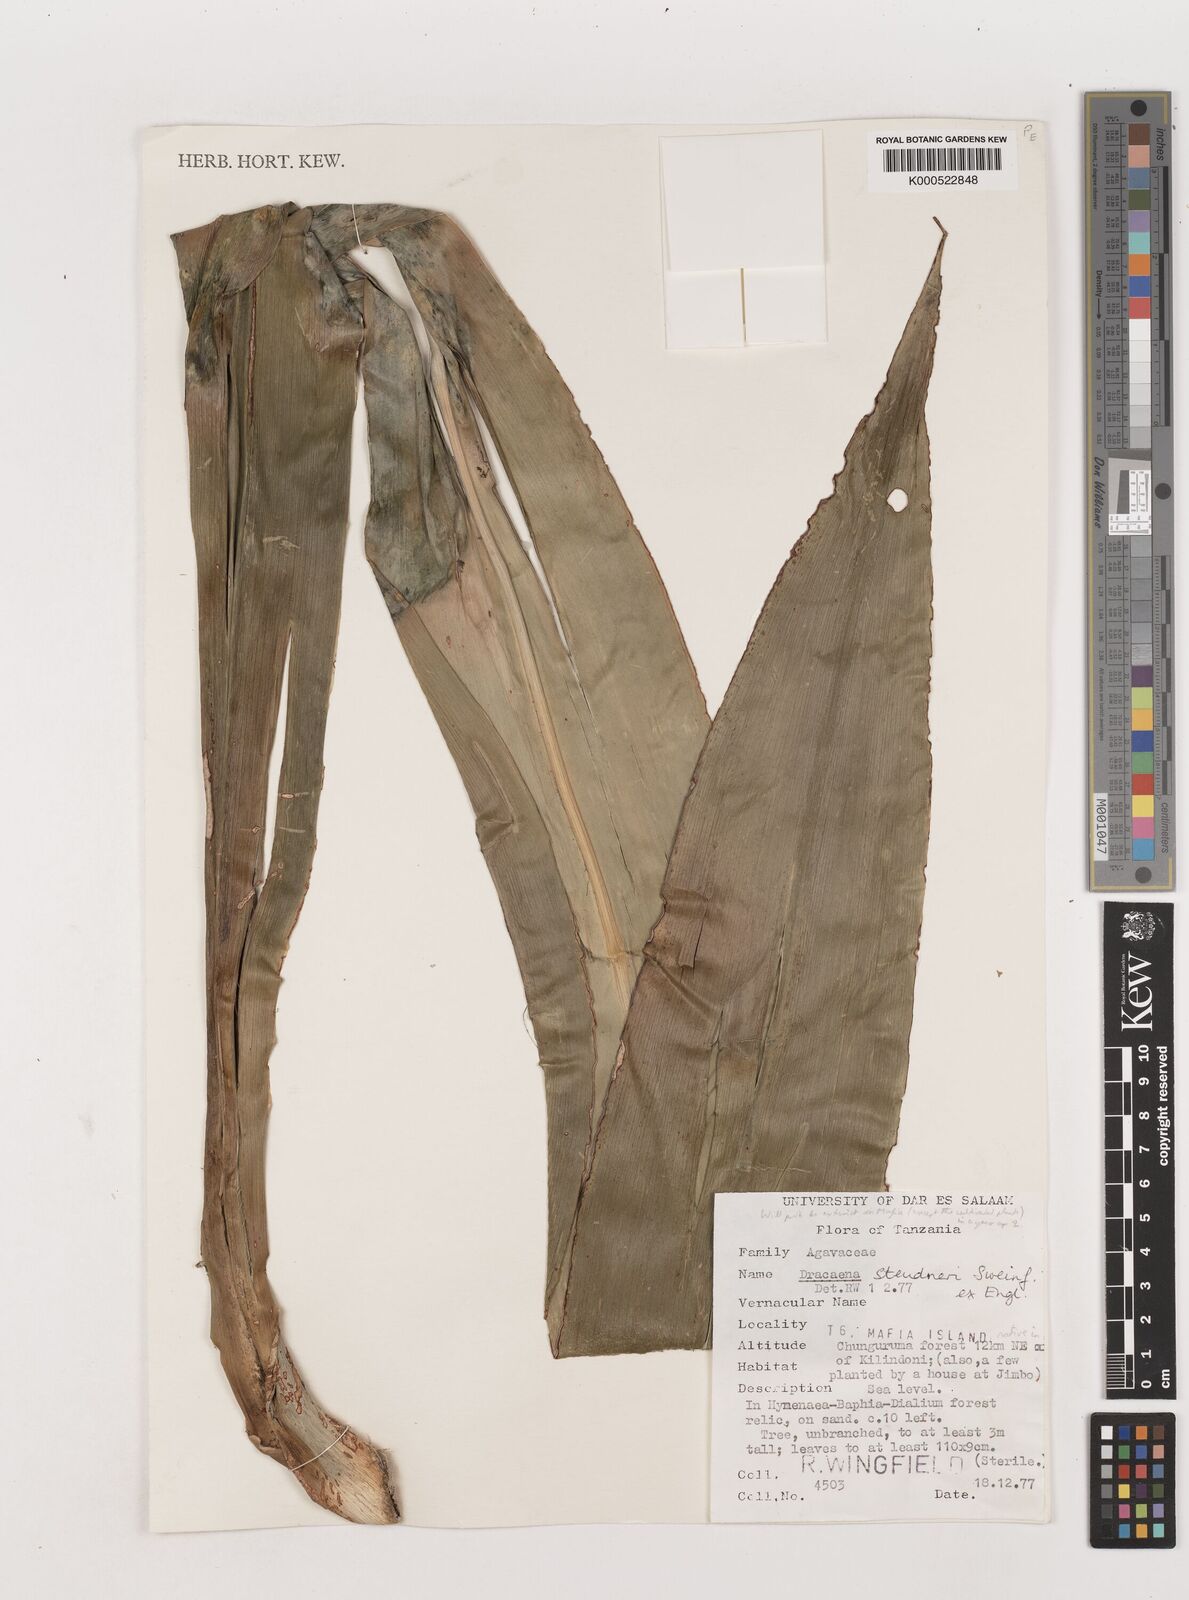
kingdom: Plantae
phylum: Tracheophyta
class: Liliopsida
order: Asparagales
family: Asparagaceae
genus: Dracaena
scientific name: Dracaena steudneri
